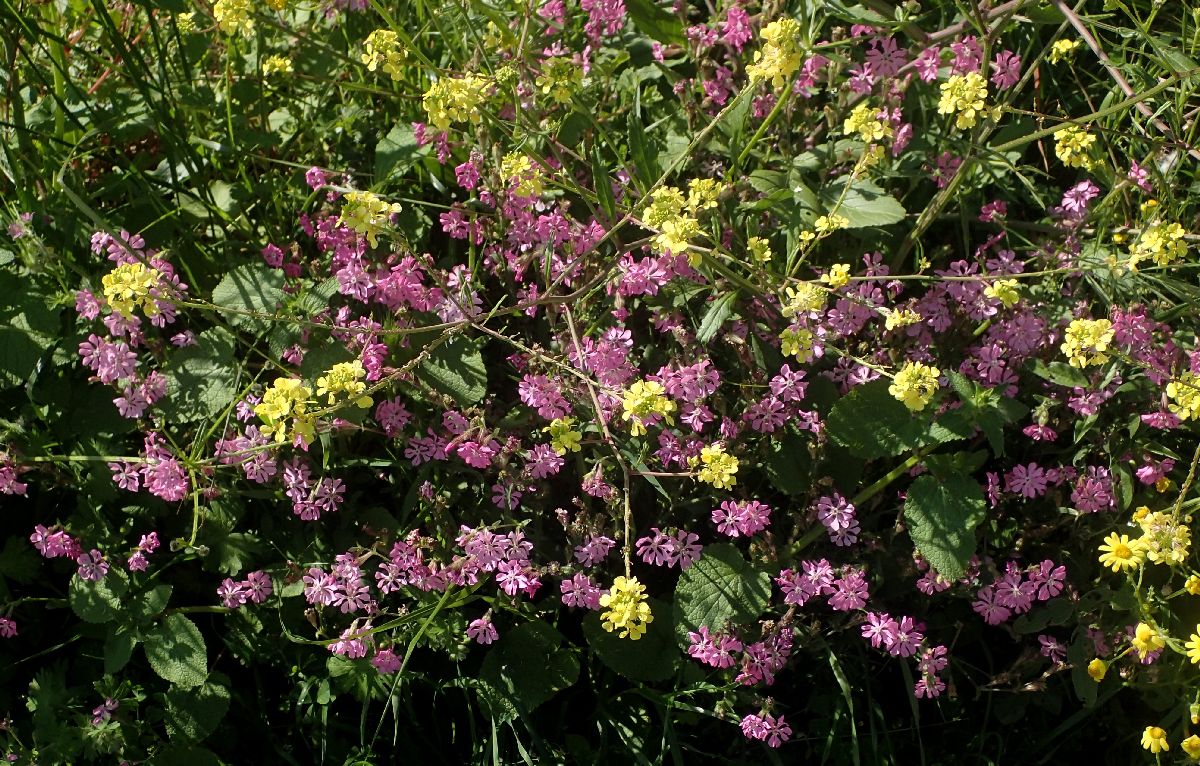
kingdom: Plantae
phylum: Tracheophyta
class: Magnoliopsida
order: Caryophyllales
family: Caryophyllaceae
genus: Silene
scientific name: Silene colorata
